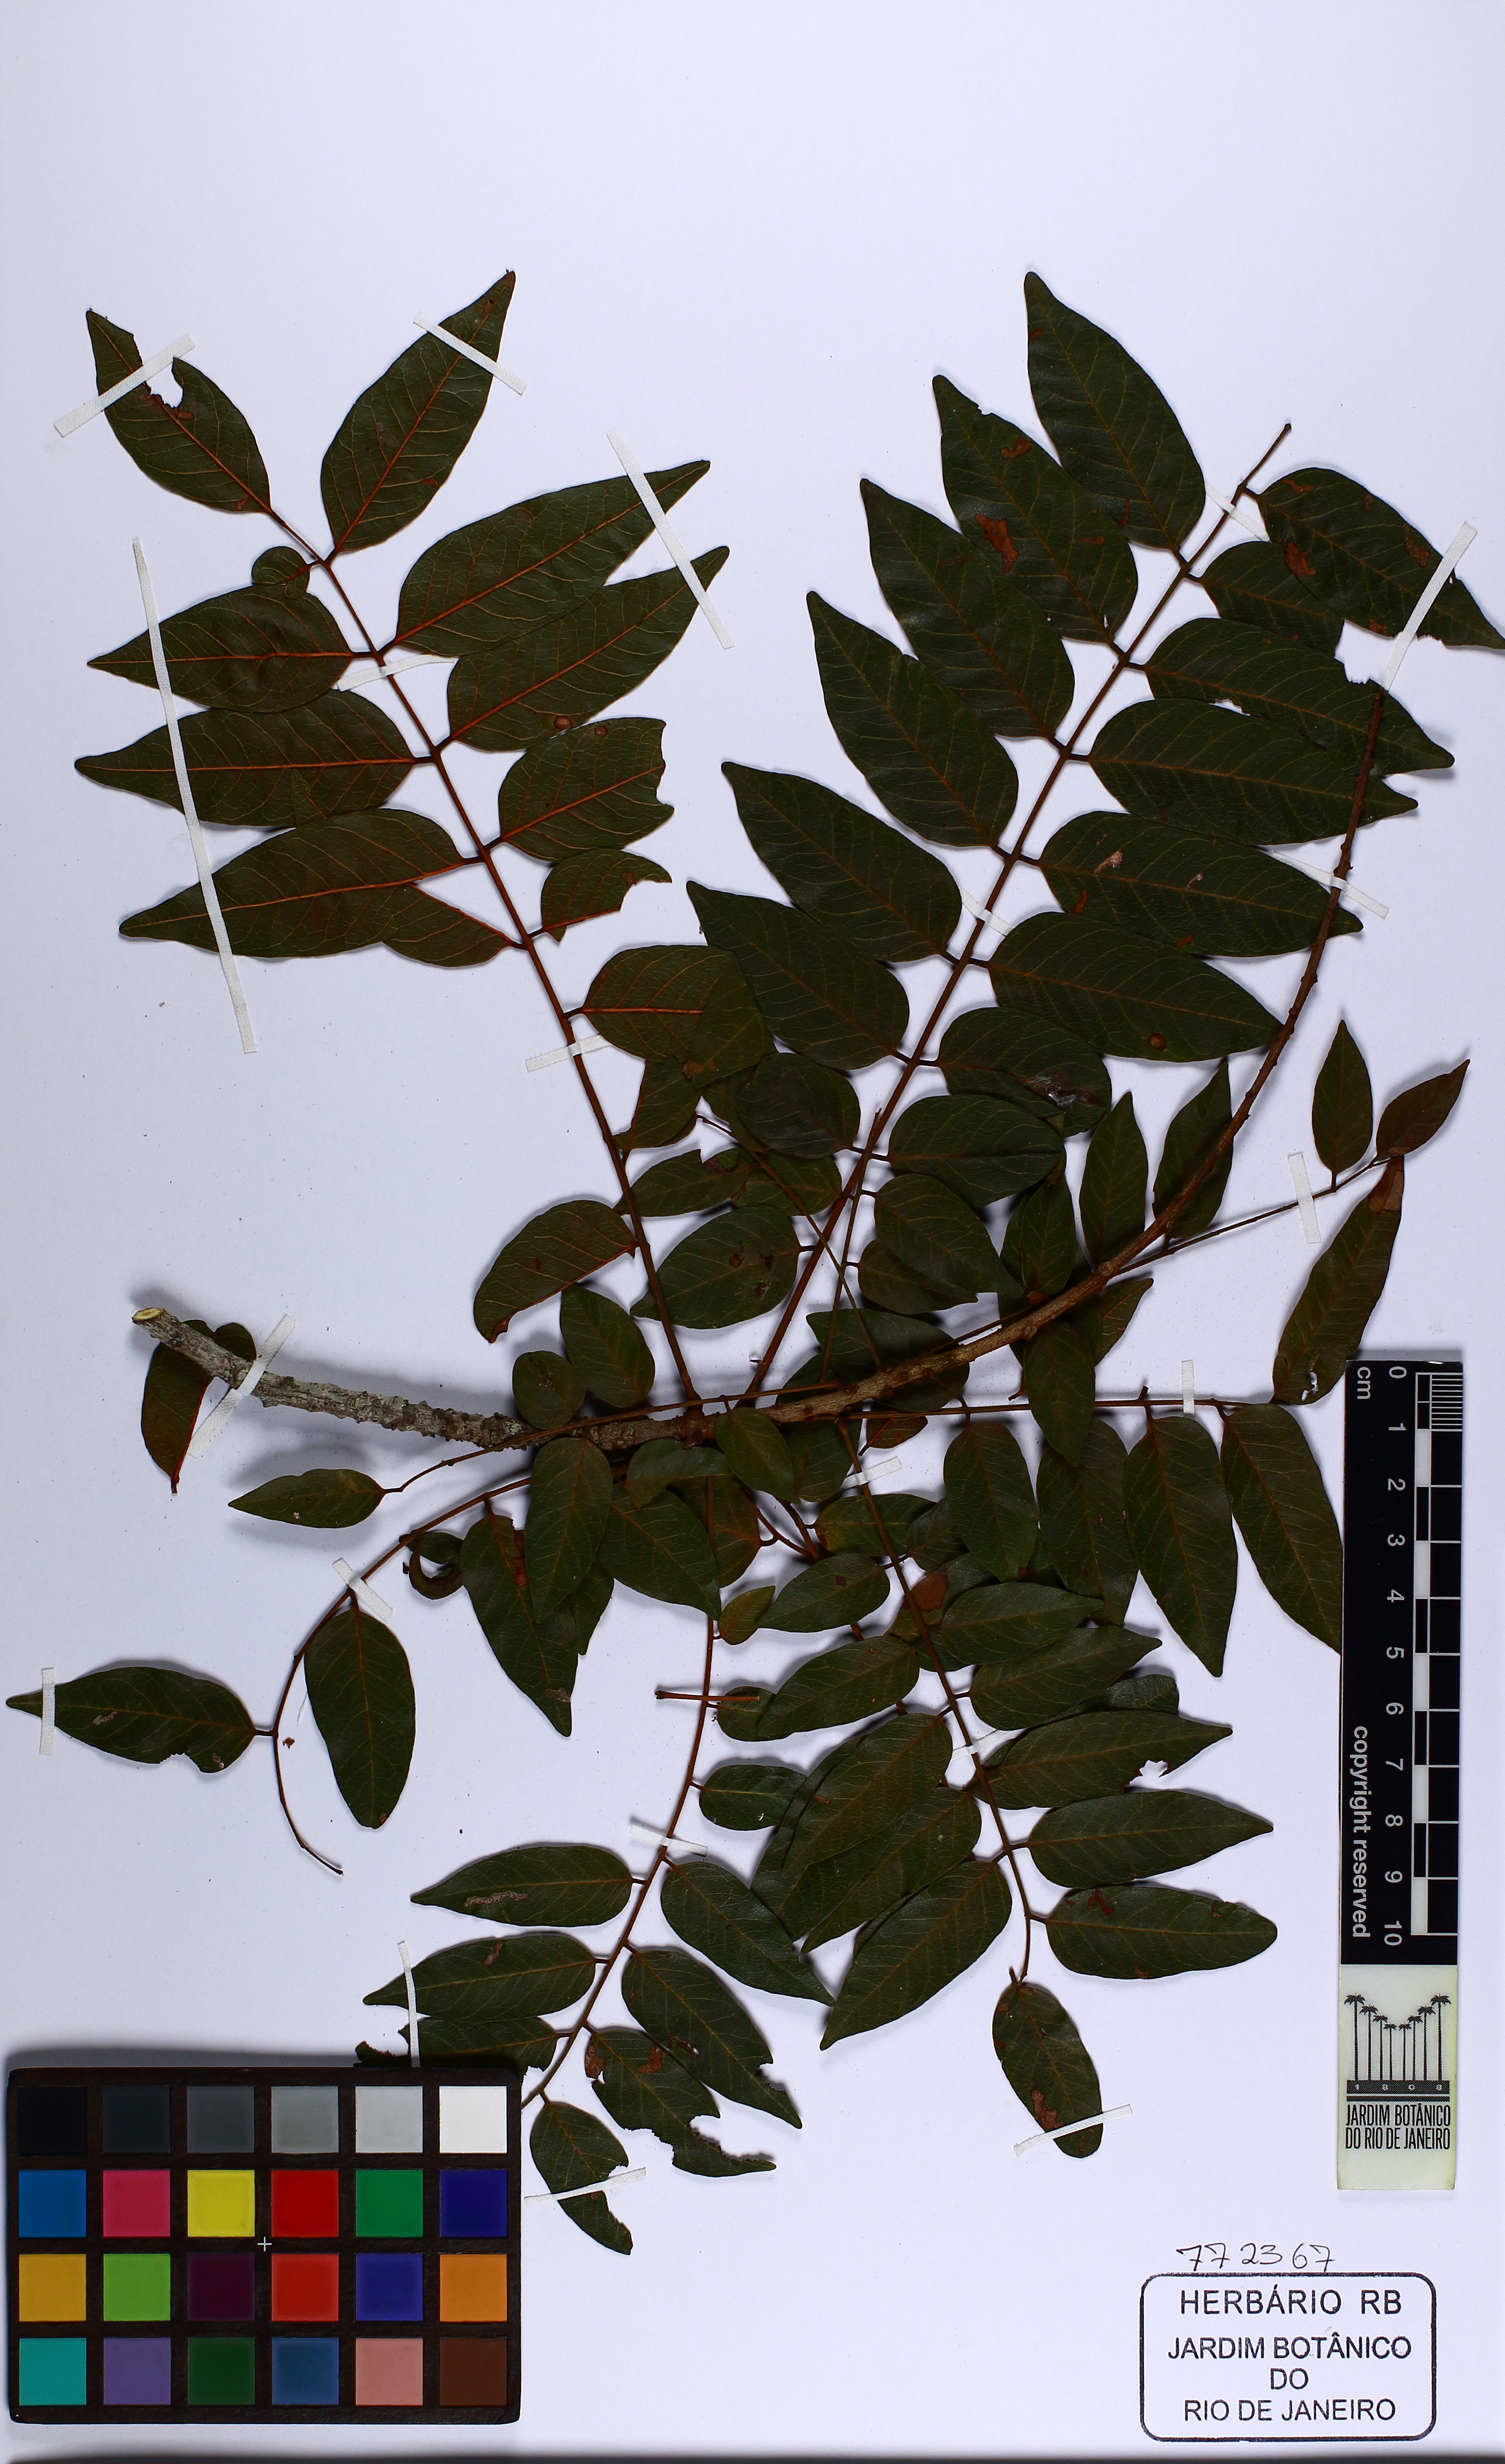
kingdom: Plantae
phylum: Tracheophyta
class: Magnoliopsida
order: Fabales
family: Fabaceae
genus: Melanoxylon
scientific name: Melanoxylon brauna
